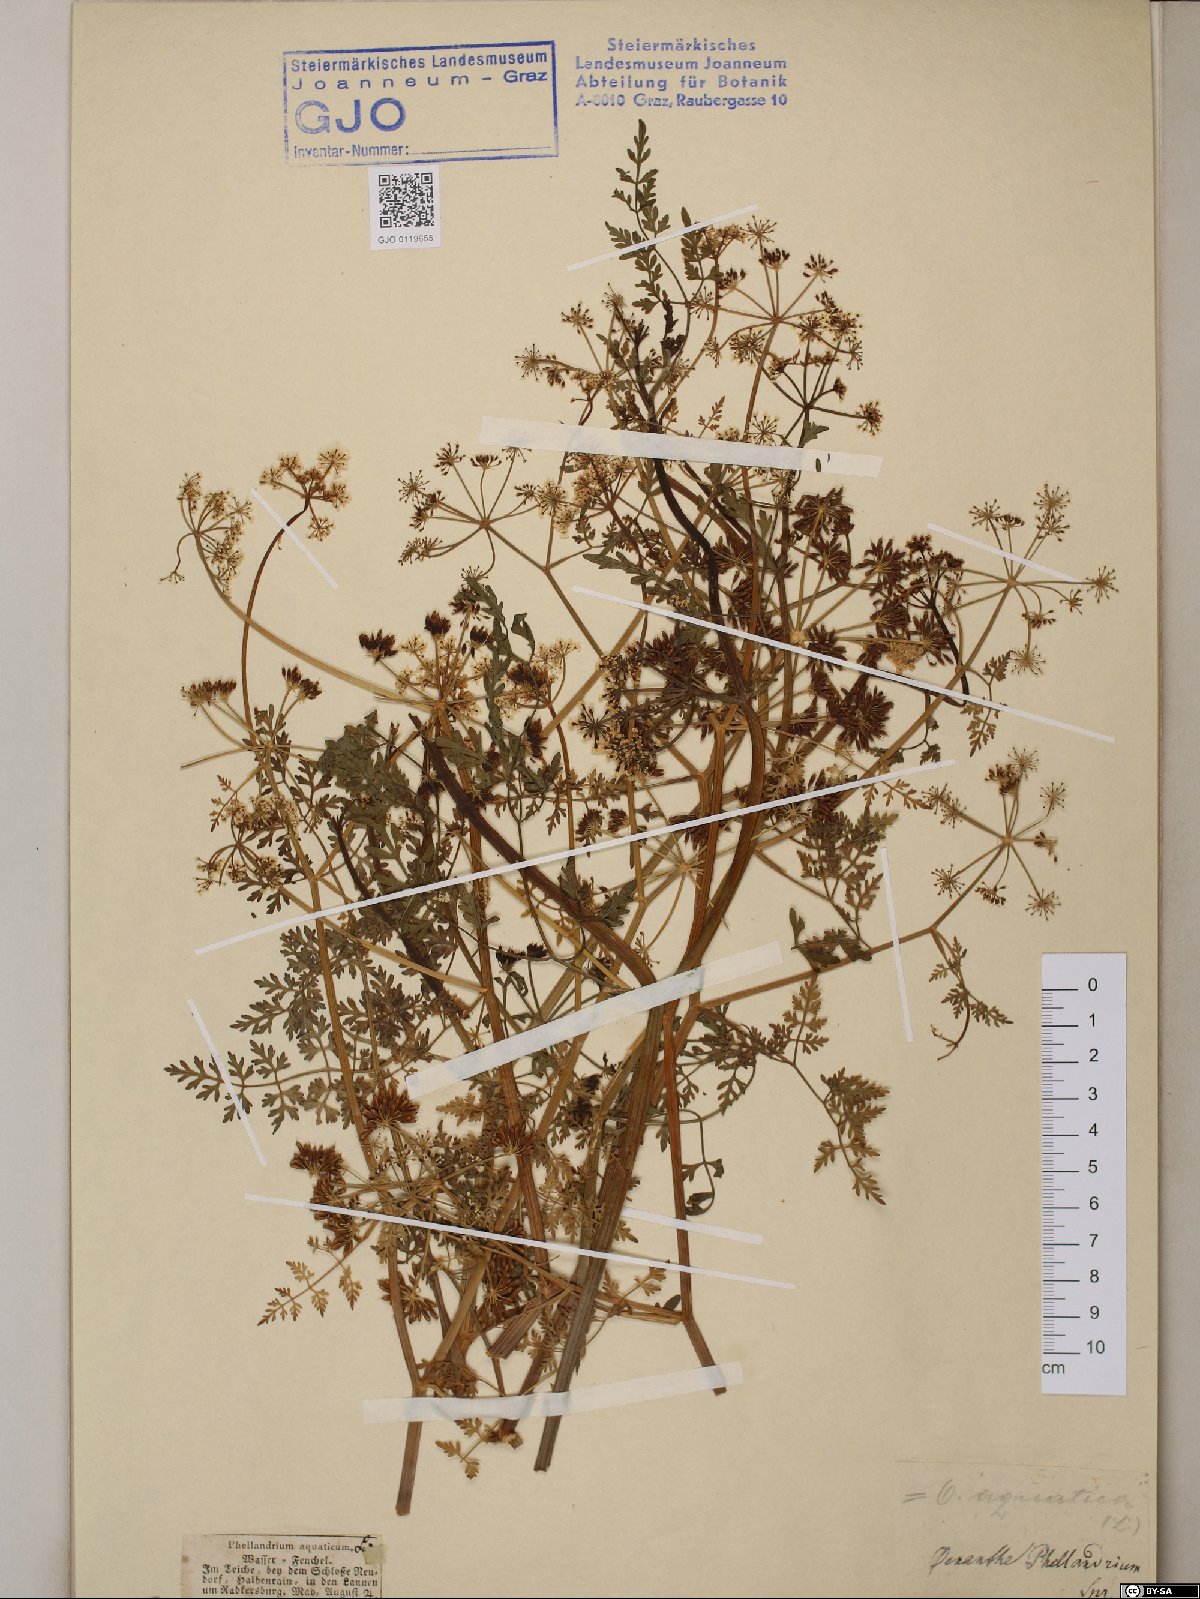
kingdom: Plantae
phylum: Tracheophyta
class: Magnoliopsida
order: Apiales
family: Apiaceae
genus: Oenanthe
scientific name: Oenanthe aquatica
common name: Fine-leaved water-dropwort
